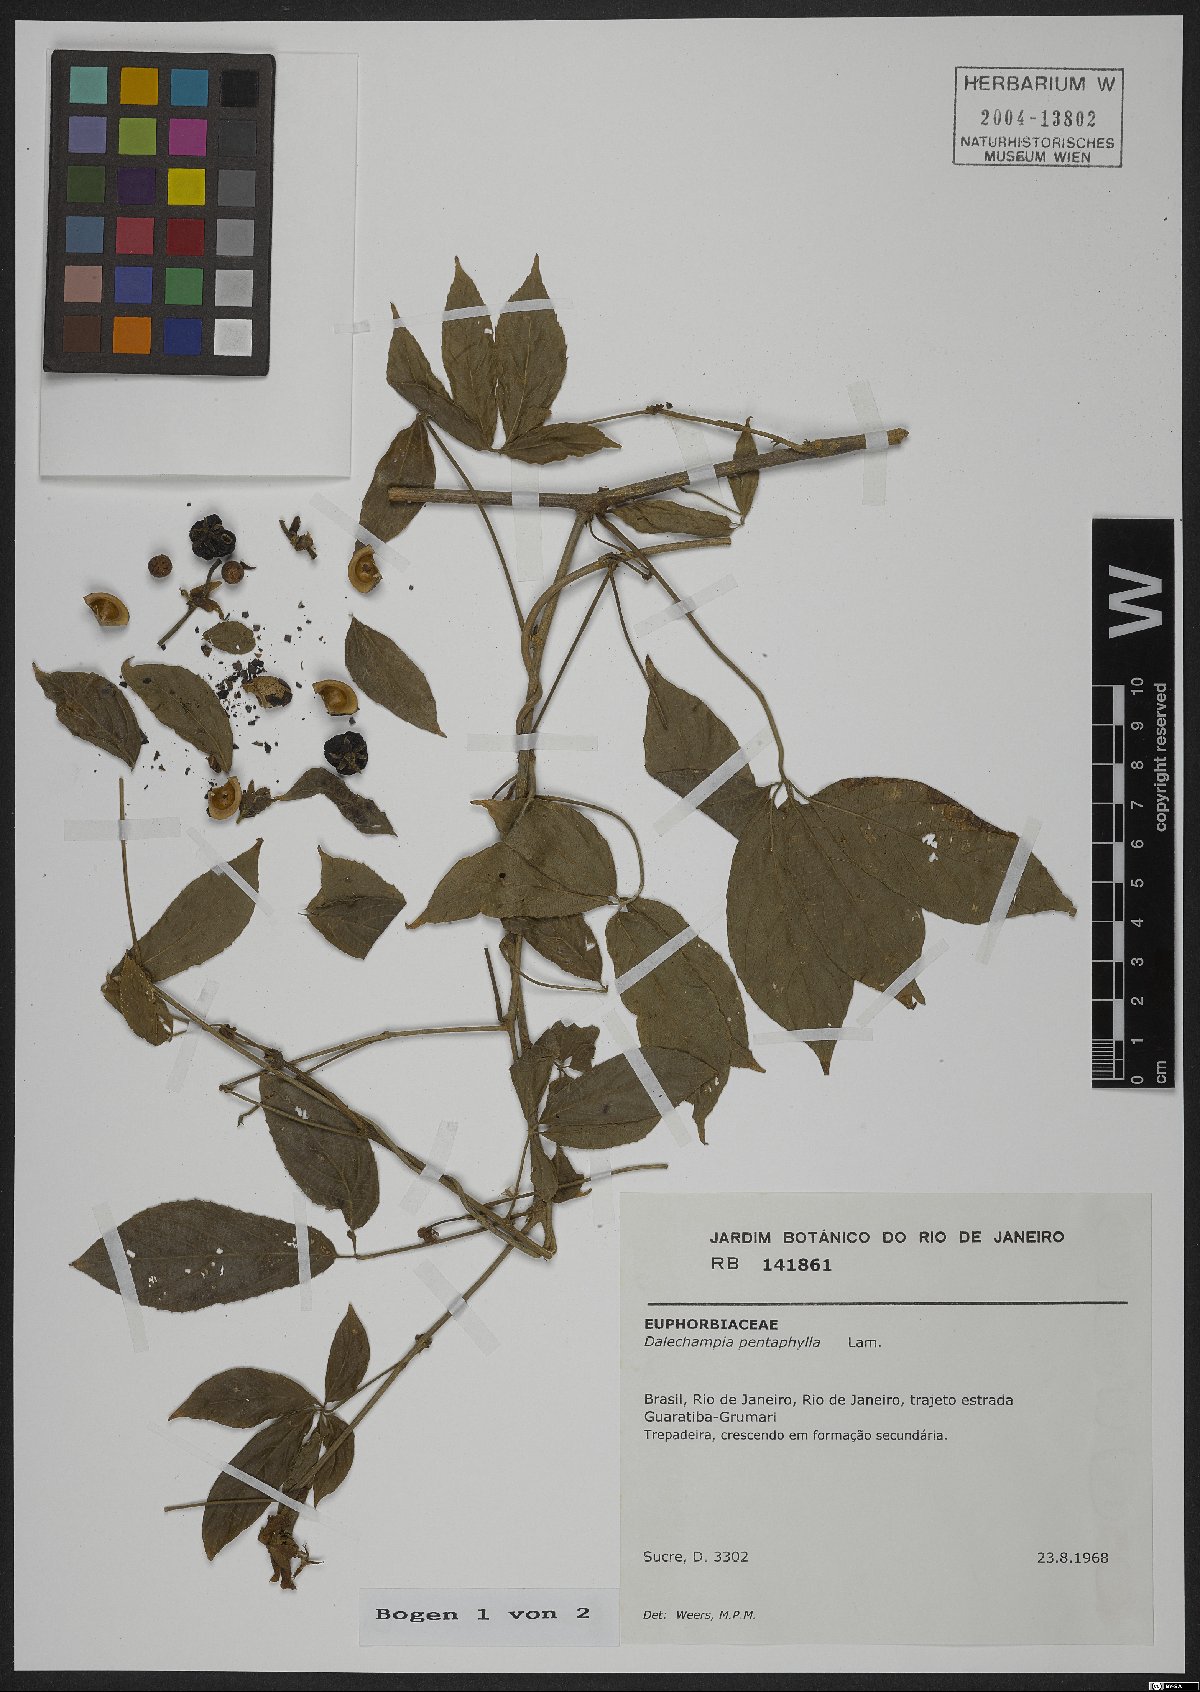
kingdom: Plantae
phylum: Tracheophyta
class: Magnoliopsida
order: Malpighiales
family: Euphorbiaceae
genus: Dalechampia
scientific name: Dalechampia pentaphylla
